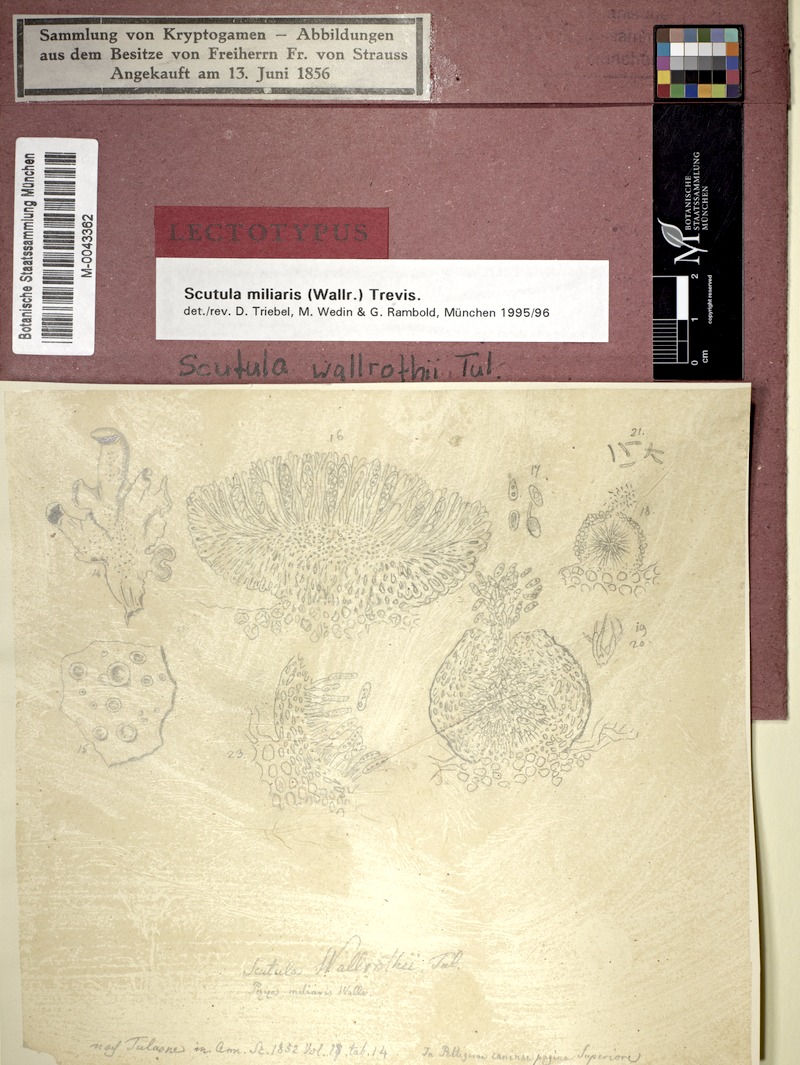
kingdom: Fungi
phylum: Ascomycota
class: Lecanoromycetes
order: Peltigerales
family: Peltigeraceae
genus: Peltigera
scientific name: Peltigera canina
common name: Dog pelt lichen
